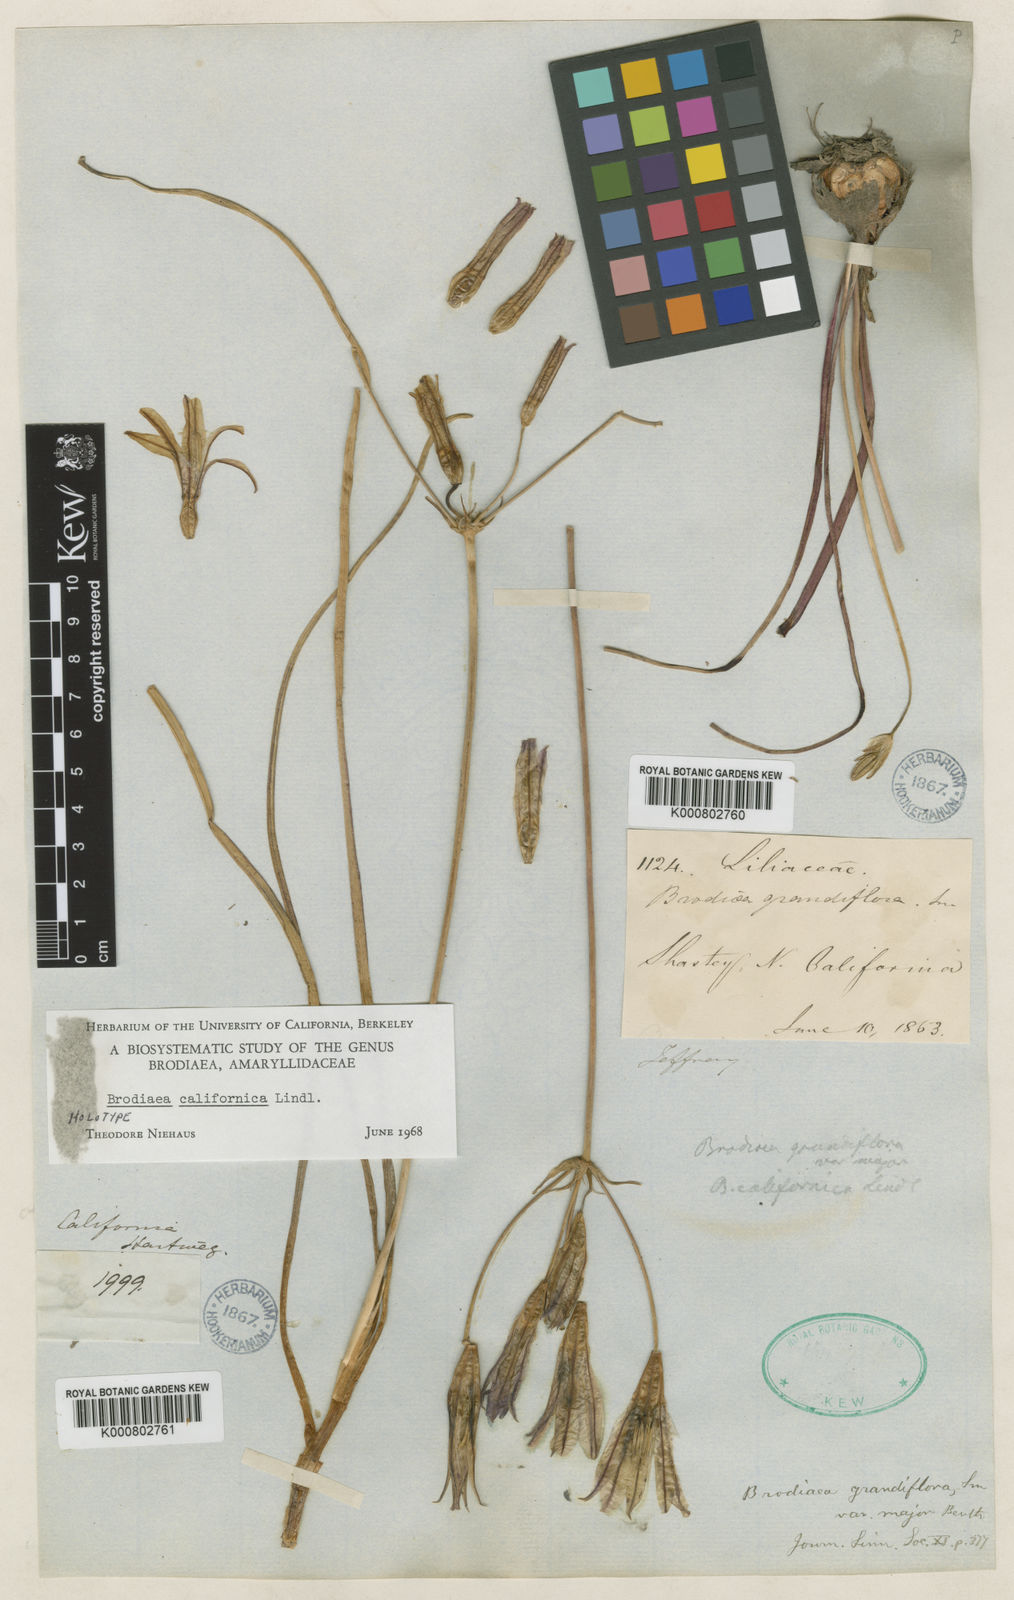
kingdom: Plantae
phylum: Tracheophyta
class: Liliopsida
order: Asparagales
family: Asparagaceae
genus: Brodiaea
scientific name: Brodiaea
